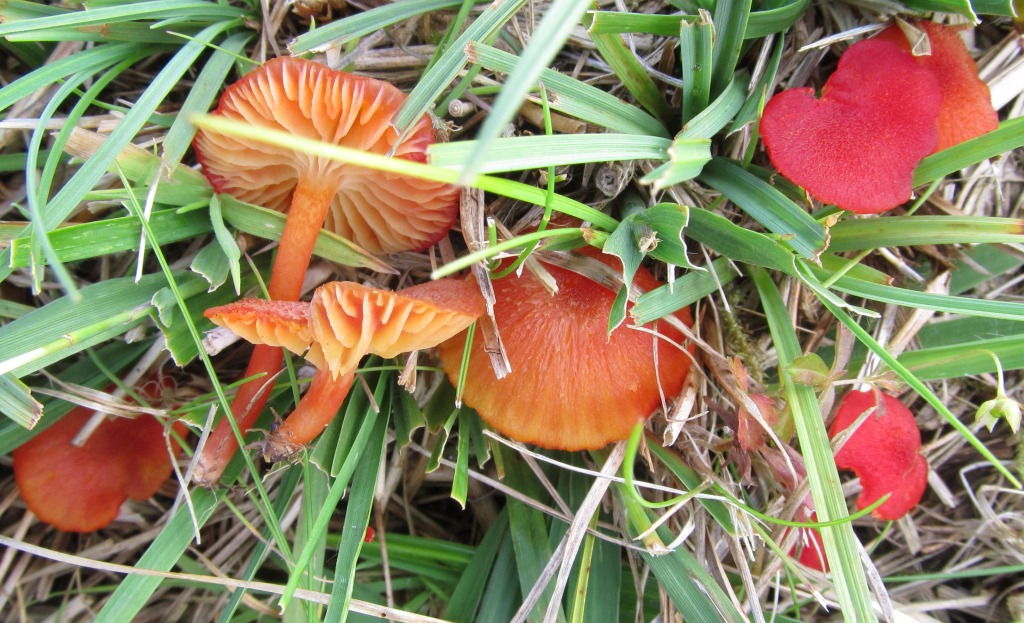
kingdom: Fungi
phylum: Basidiomycota
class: Agaricomycetes
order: Agaricales
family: Hygrophoraceae
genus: Hygrocybe
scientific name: Hygrocybe helobia
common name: hvidløgs-vokshat
